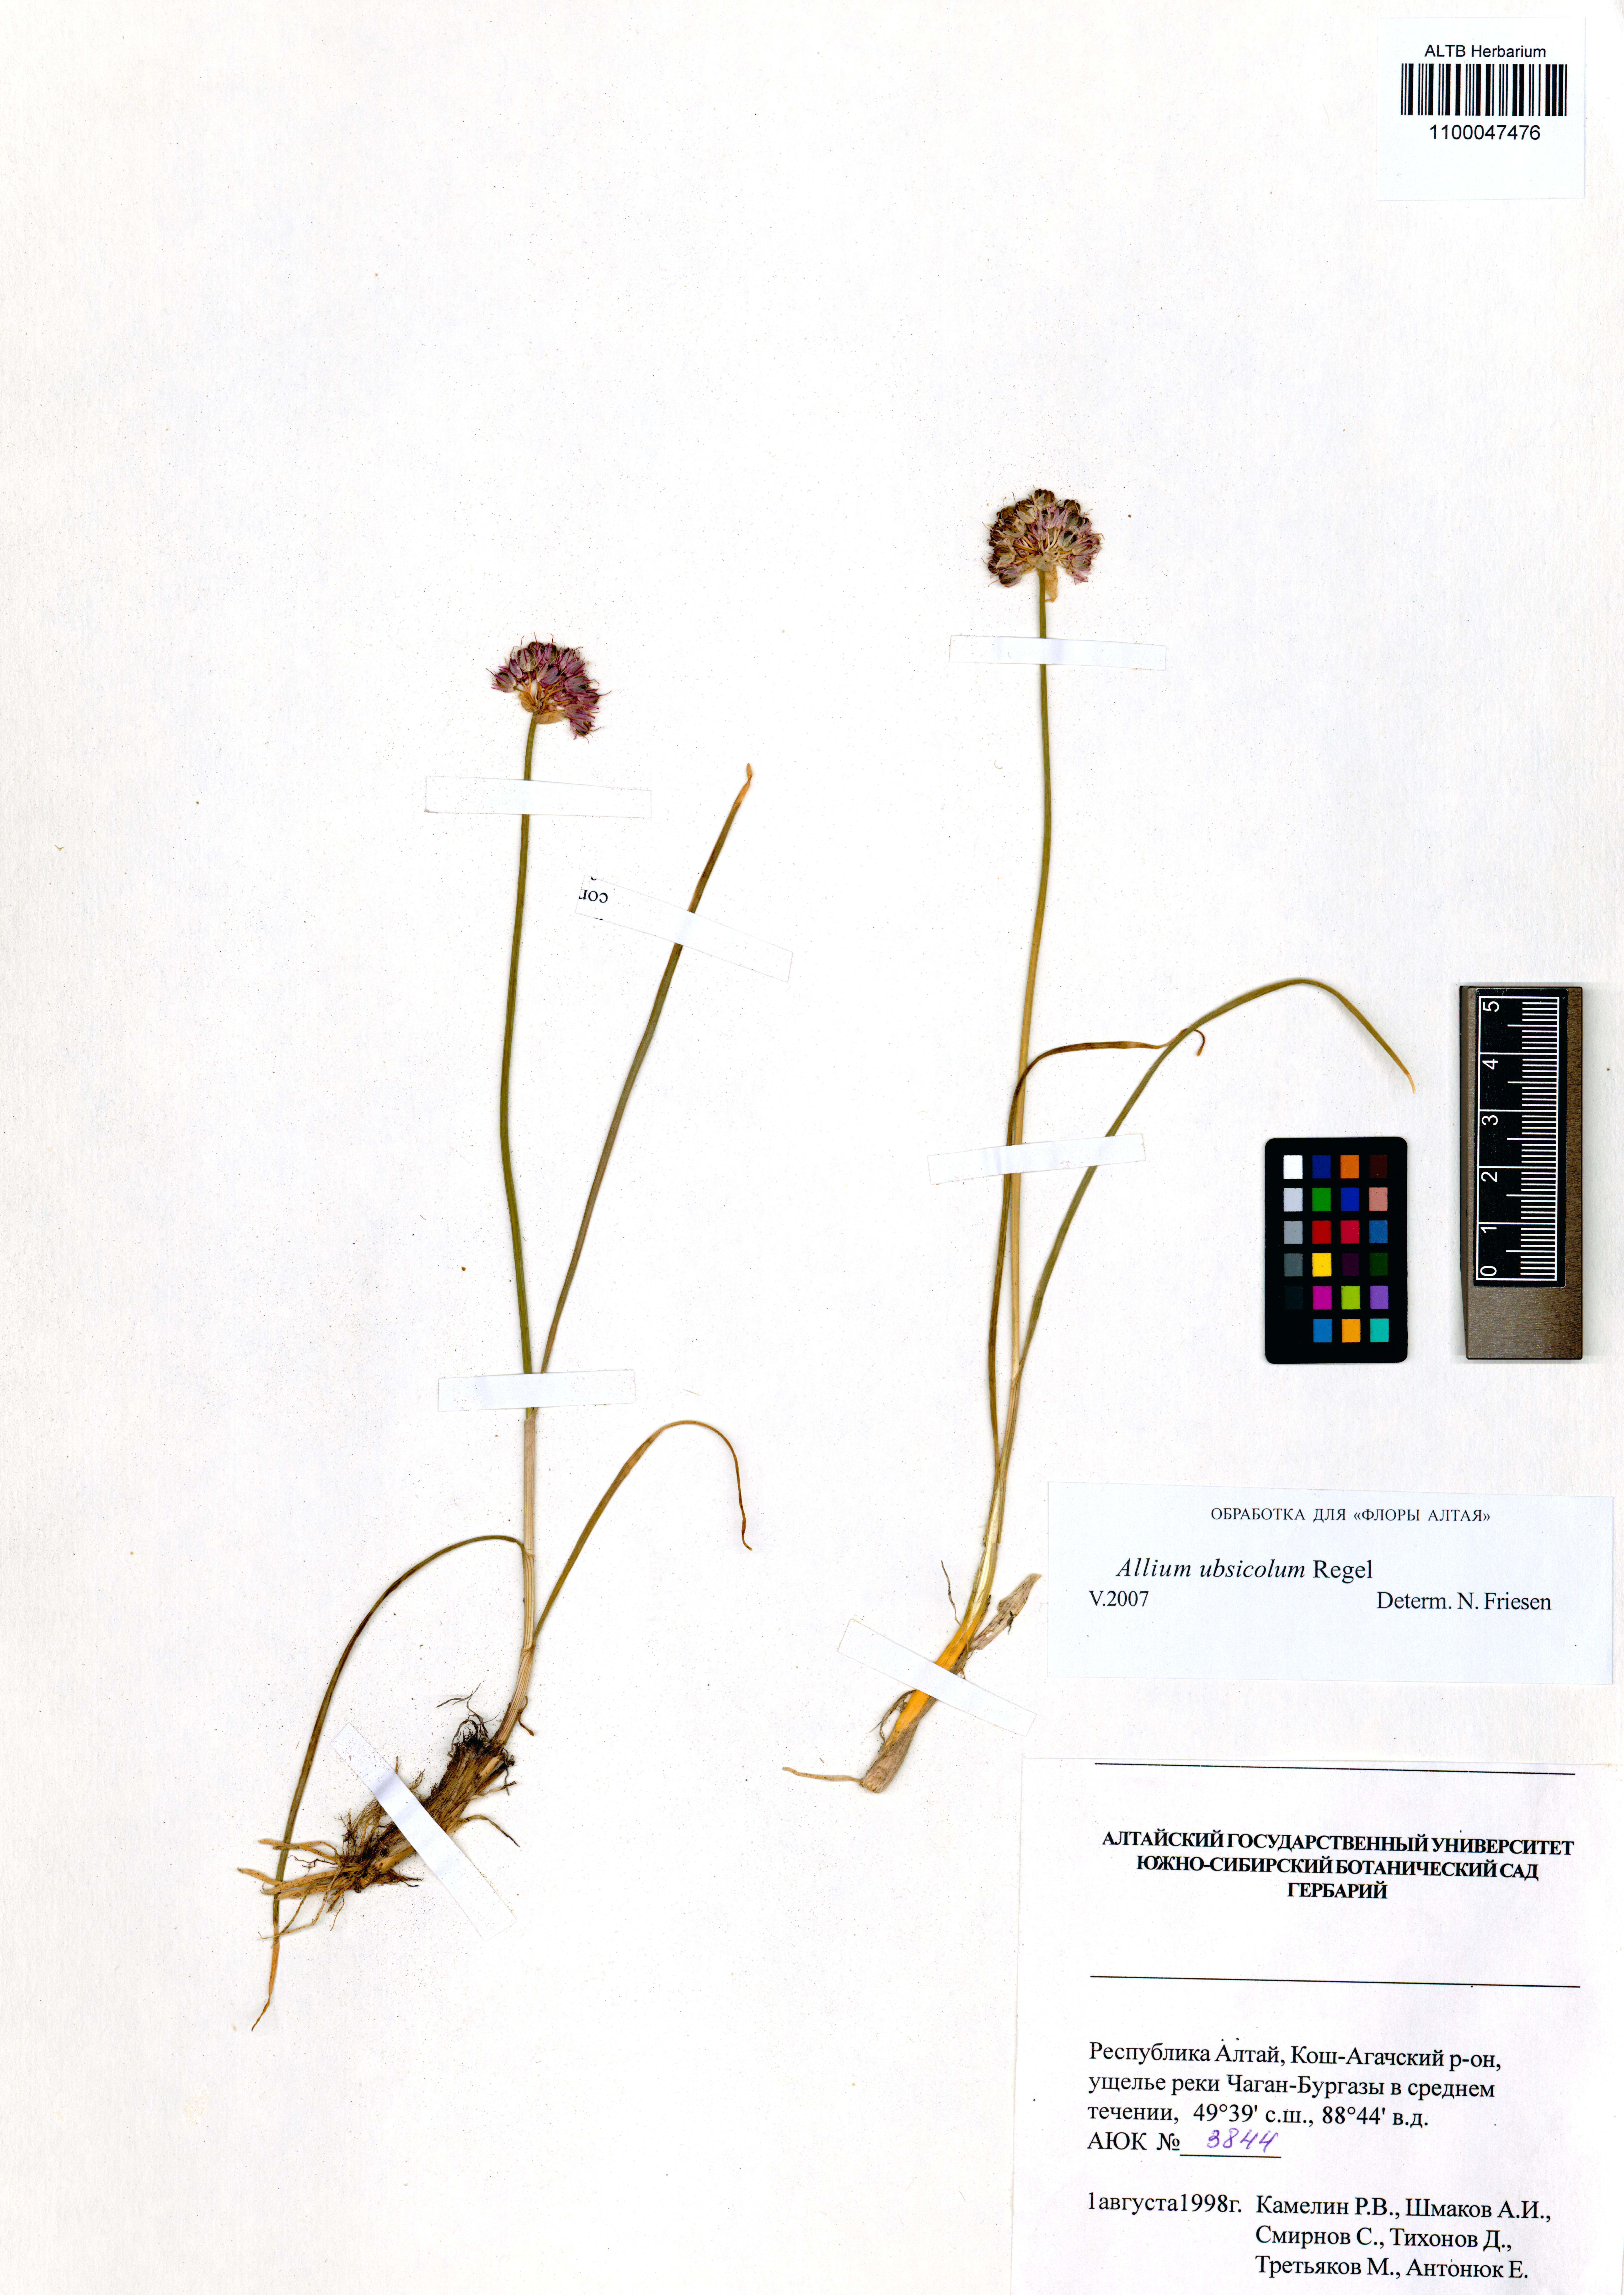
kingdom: Plantae
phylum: Tracheophyta
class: Liliopsida
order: Asparagales
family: Amaryllidaceae
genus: Allium
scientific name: Allium ubsicola
